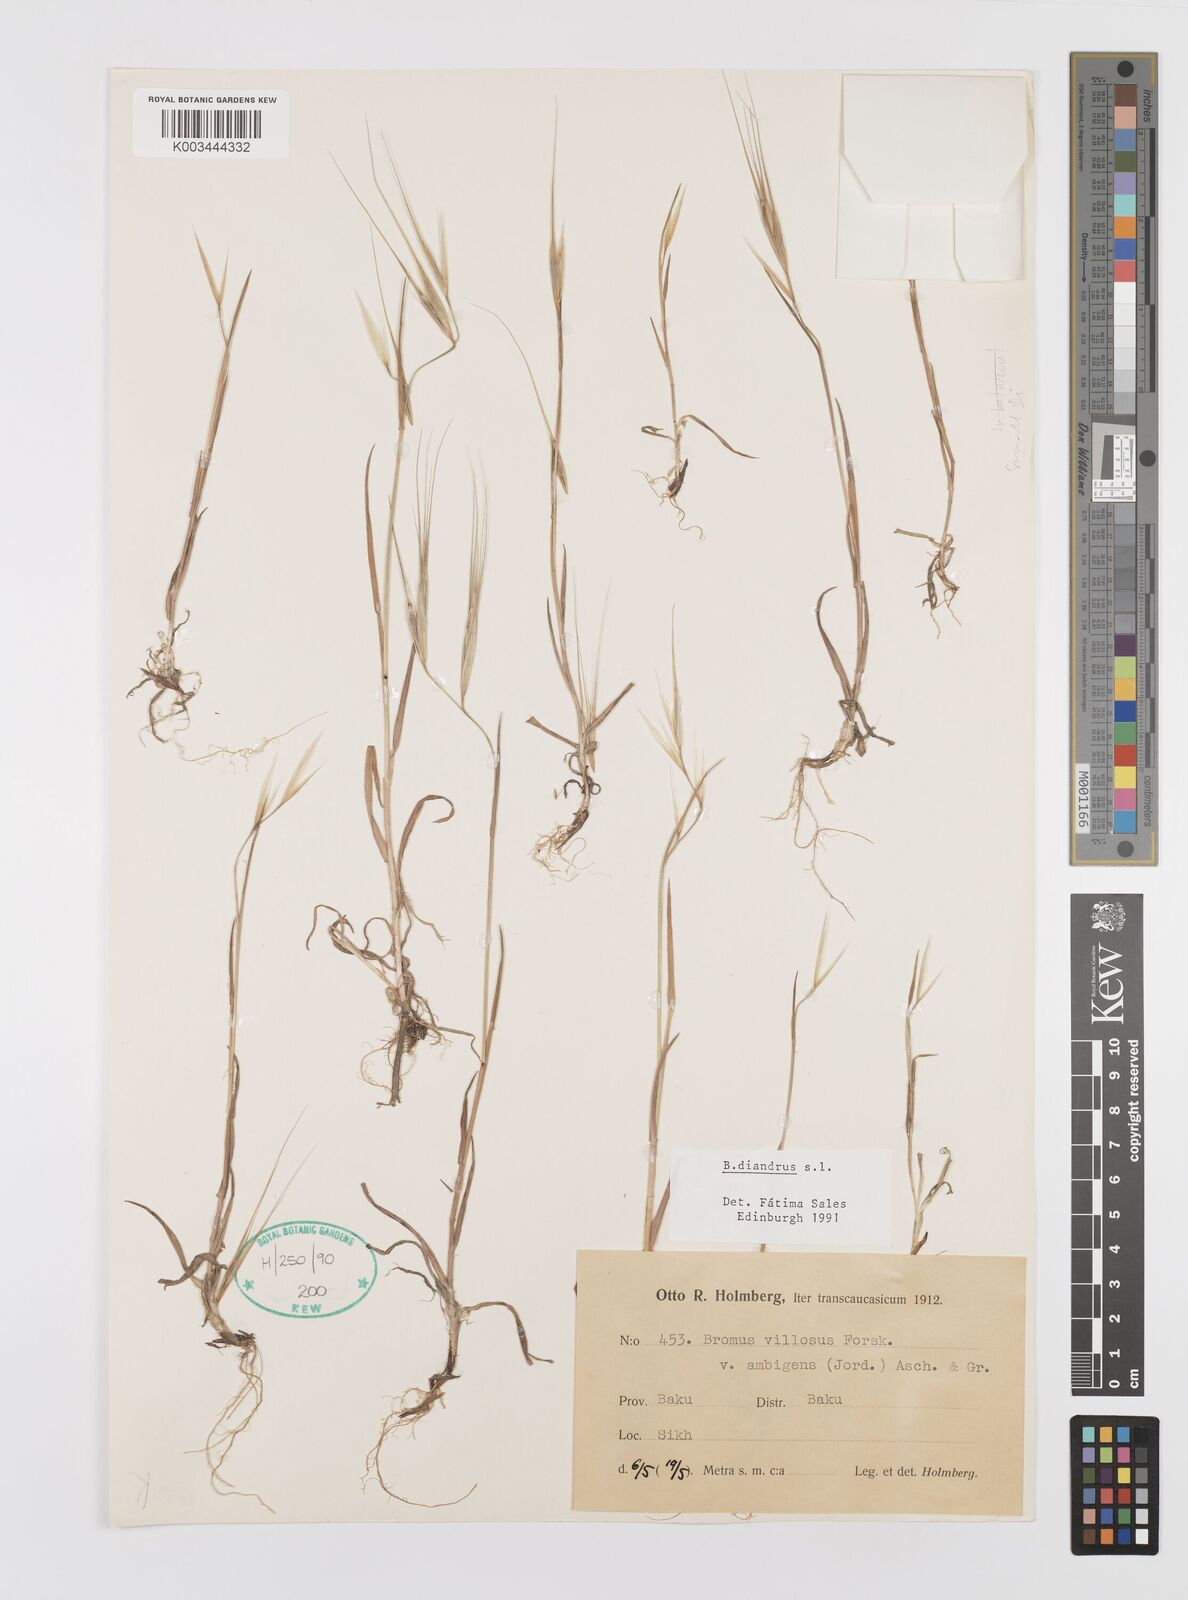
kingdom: Plantae
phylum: Tracheophyta
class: Liliopsida
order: Poales
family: Poaceae
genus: Bromus
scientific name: Bromus diandrus
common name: Ripgut brome
